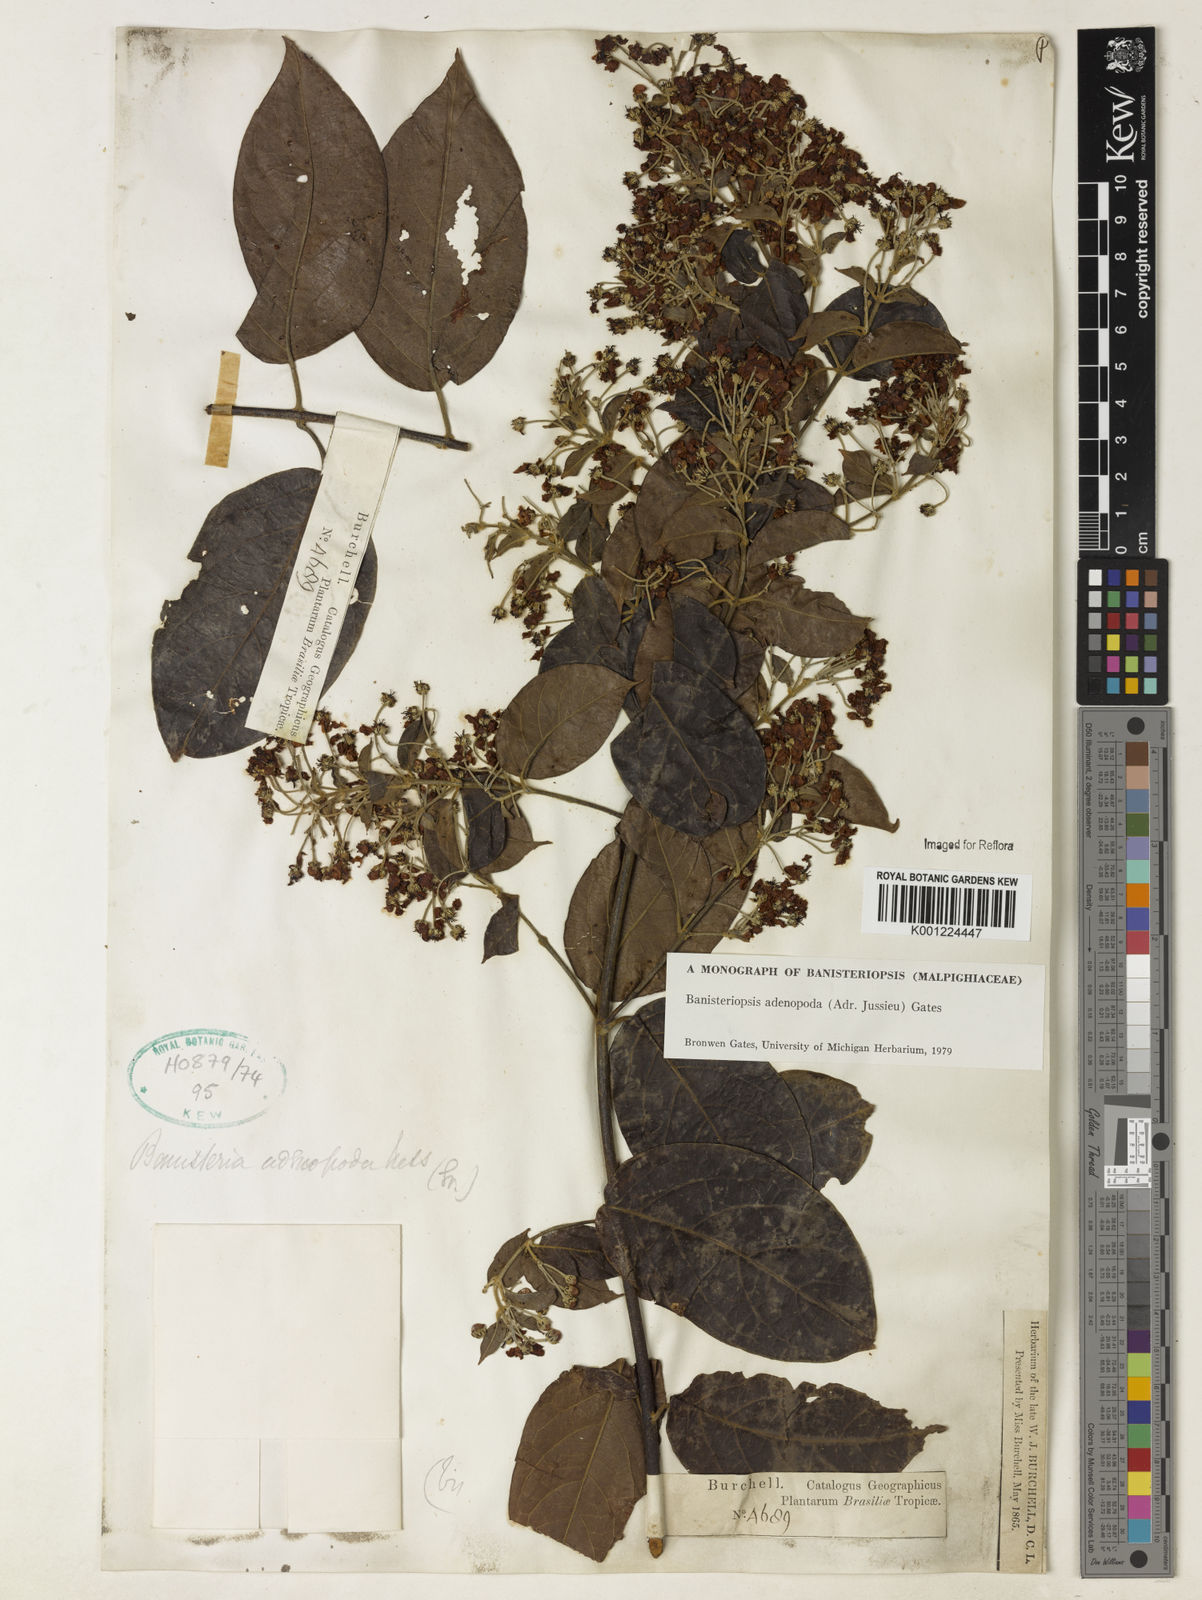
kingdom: Plantae
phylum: Tracheophyta
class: Magnoliopsida
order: Malpighiales
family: Malpighiaceae
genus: Banisteriopsis
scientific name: Banisteriopsis adenopoda
